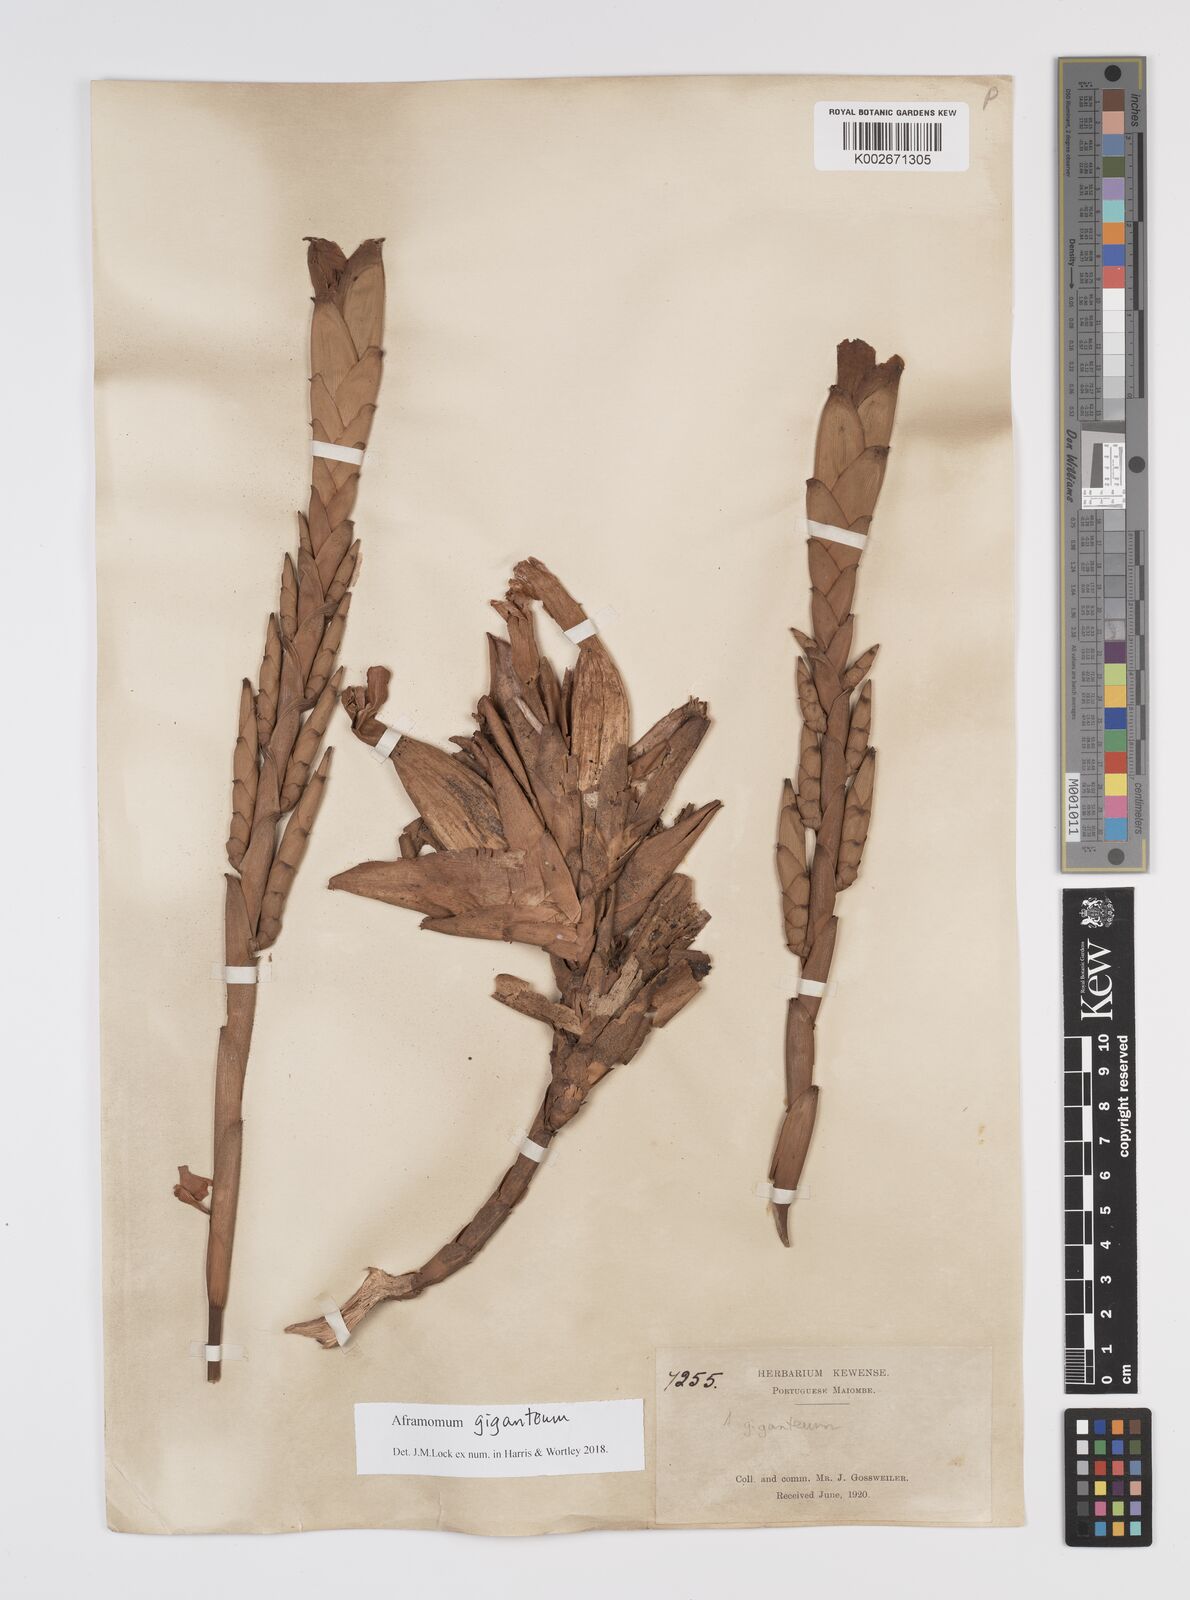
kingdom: Plantae
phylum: Tracheophyta
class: Liliopsida
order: Zingiberales
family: Zingiberaceae
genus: Aframomum
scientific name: Aframomum giganteum
